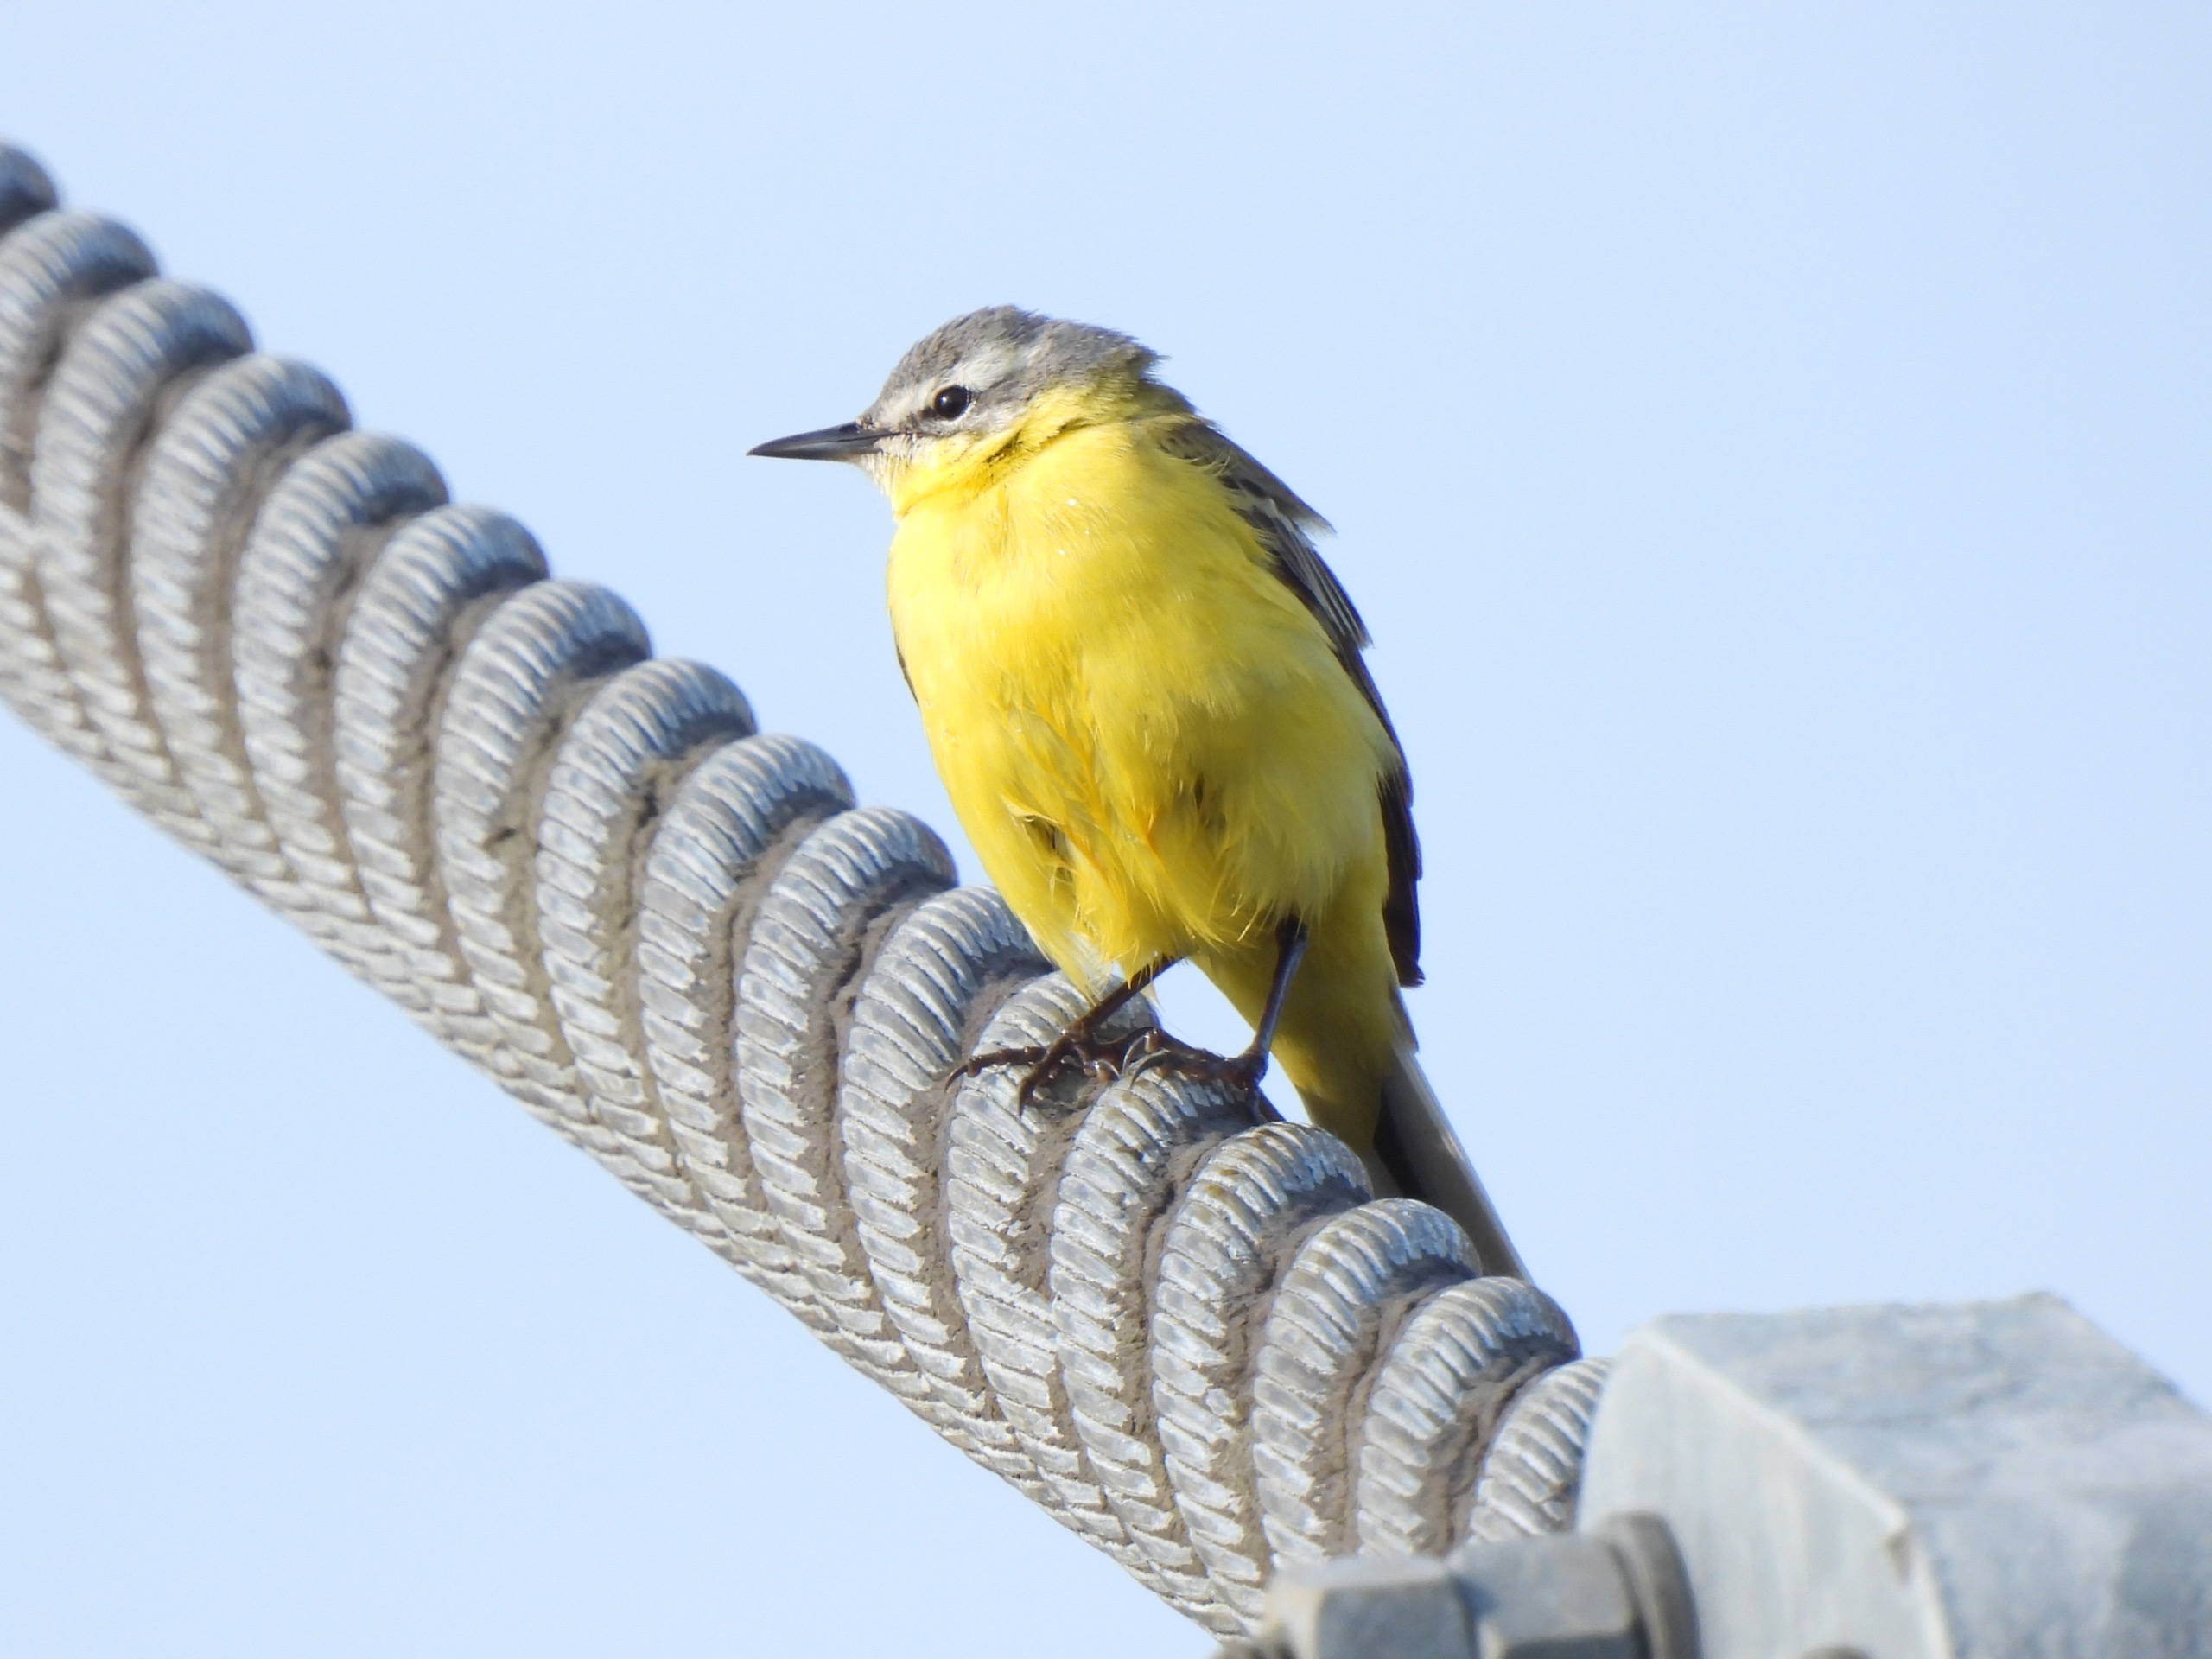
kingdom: Animalia
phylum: Chordata
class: Aves
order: Passeriformes
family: Motacillidae
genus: Motacilla
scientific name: Motacilla flava
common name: Gul vipstjert
